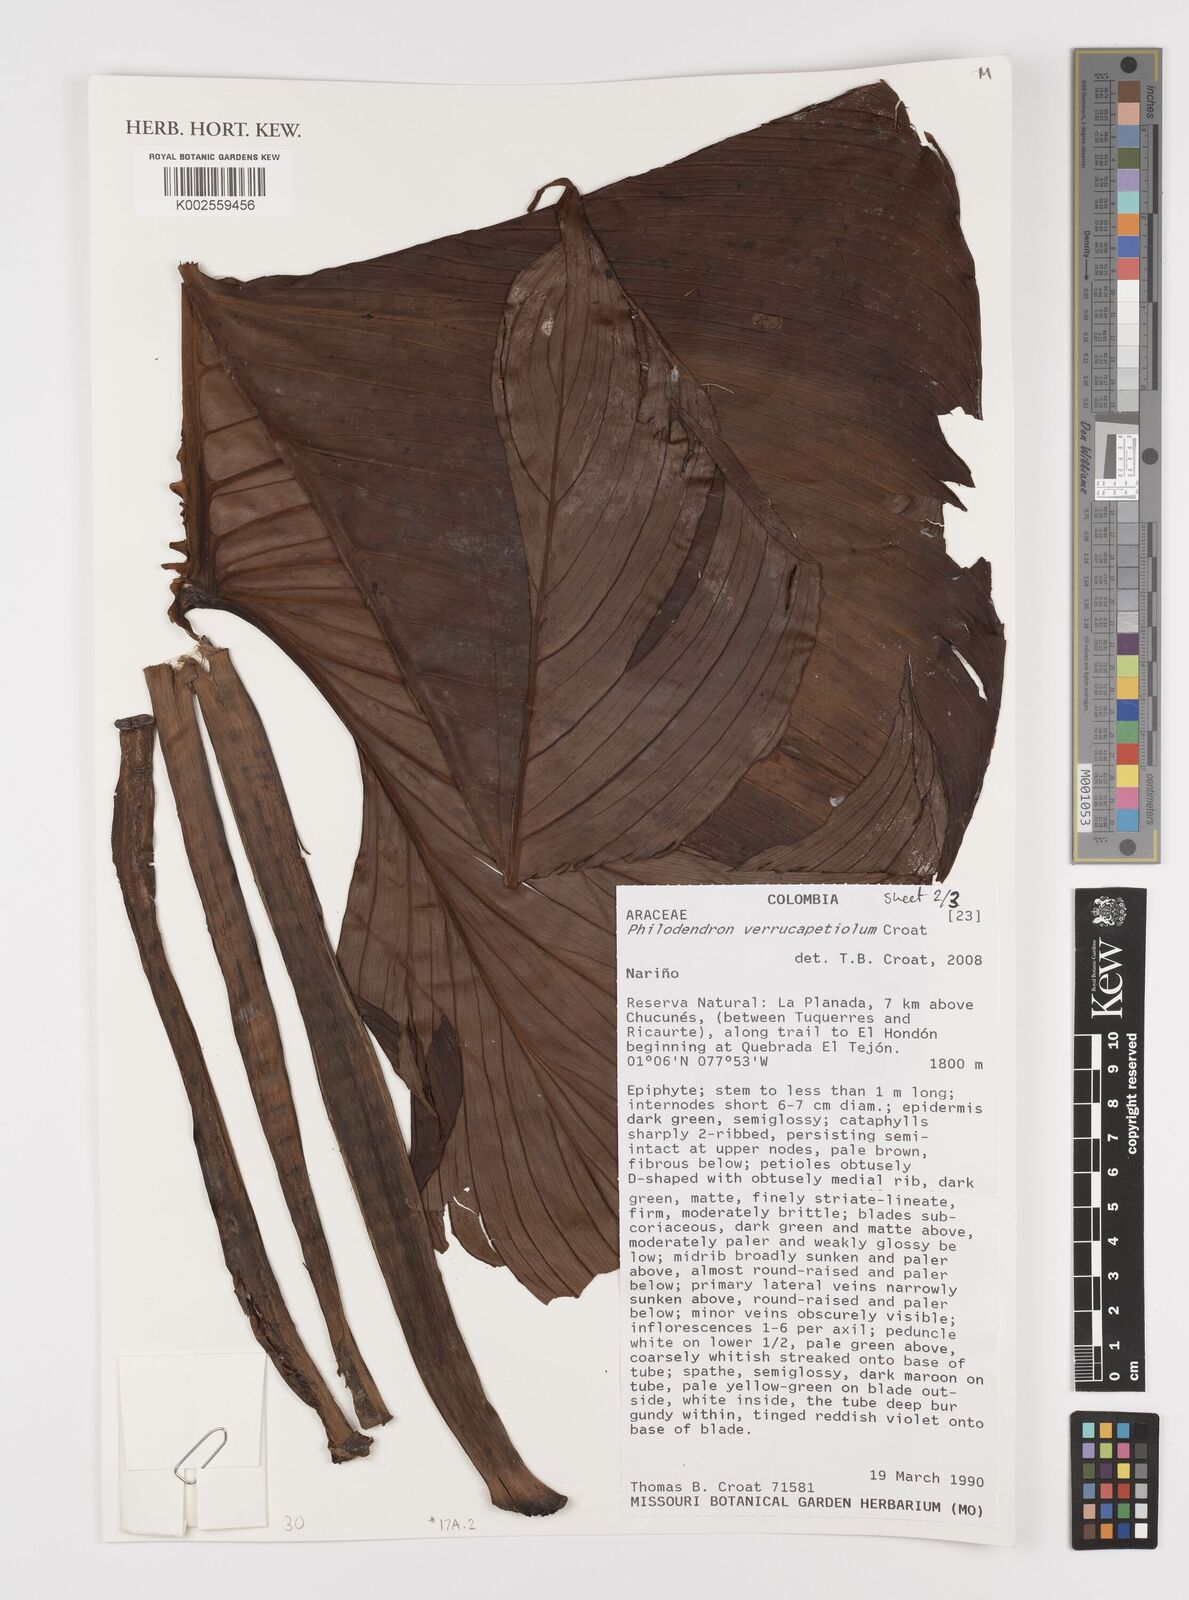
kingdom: Plantae
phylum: Tracheophyta
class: Liliopsida
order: Alismatales
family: Araceae
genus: Philodendron
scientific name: Philodendron verrucapetiolum
